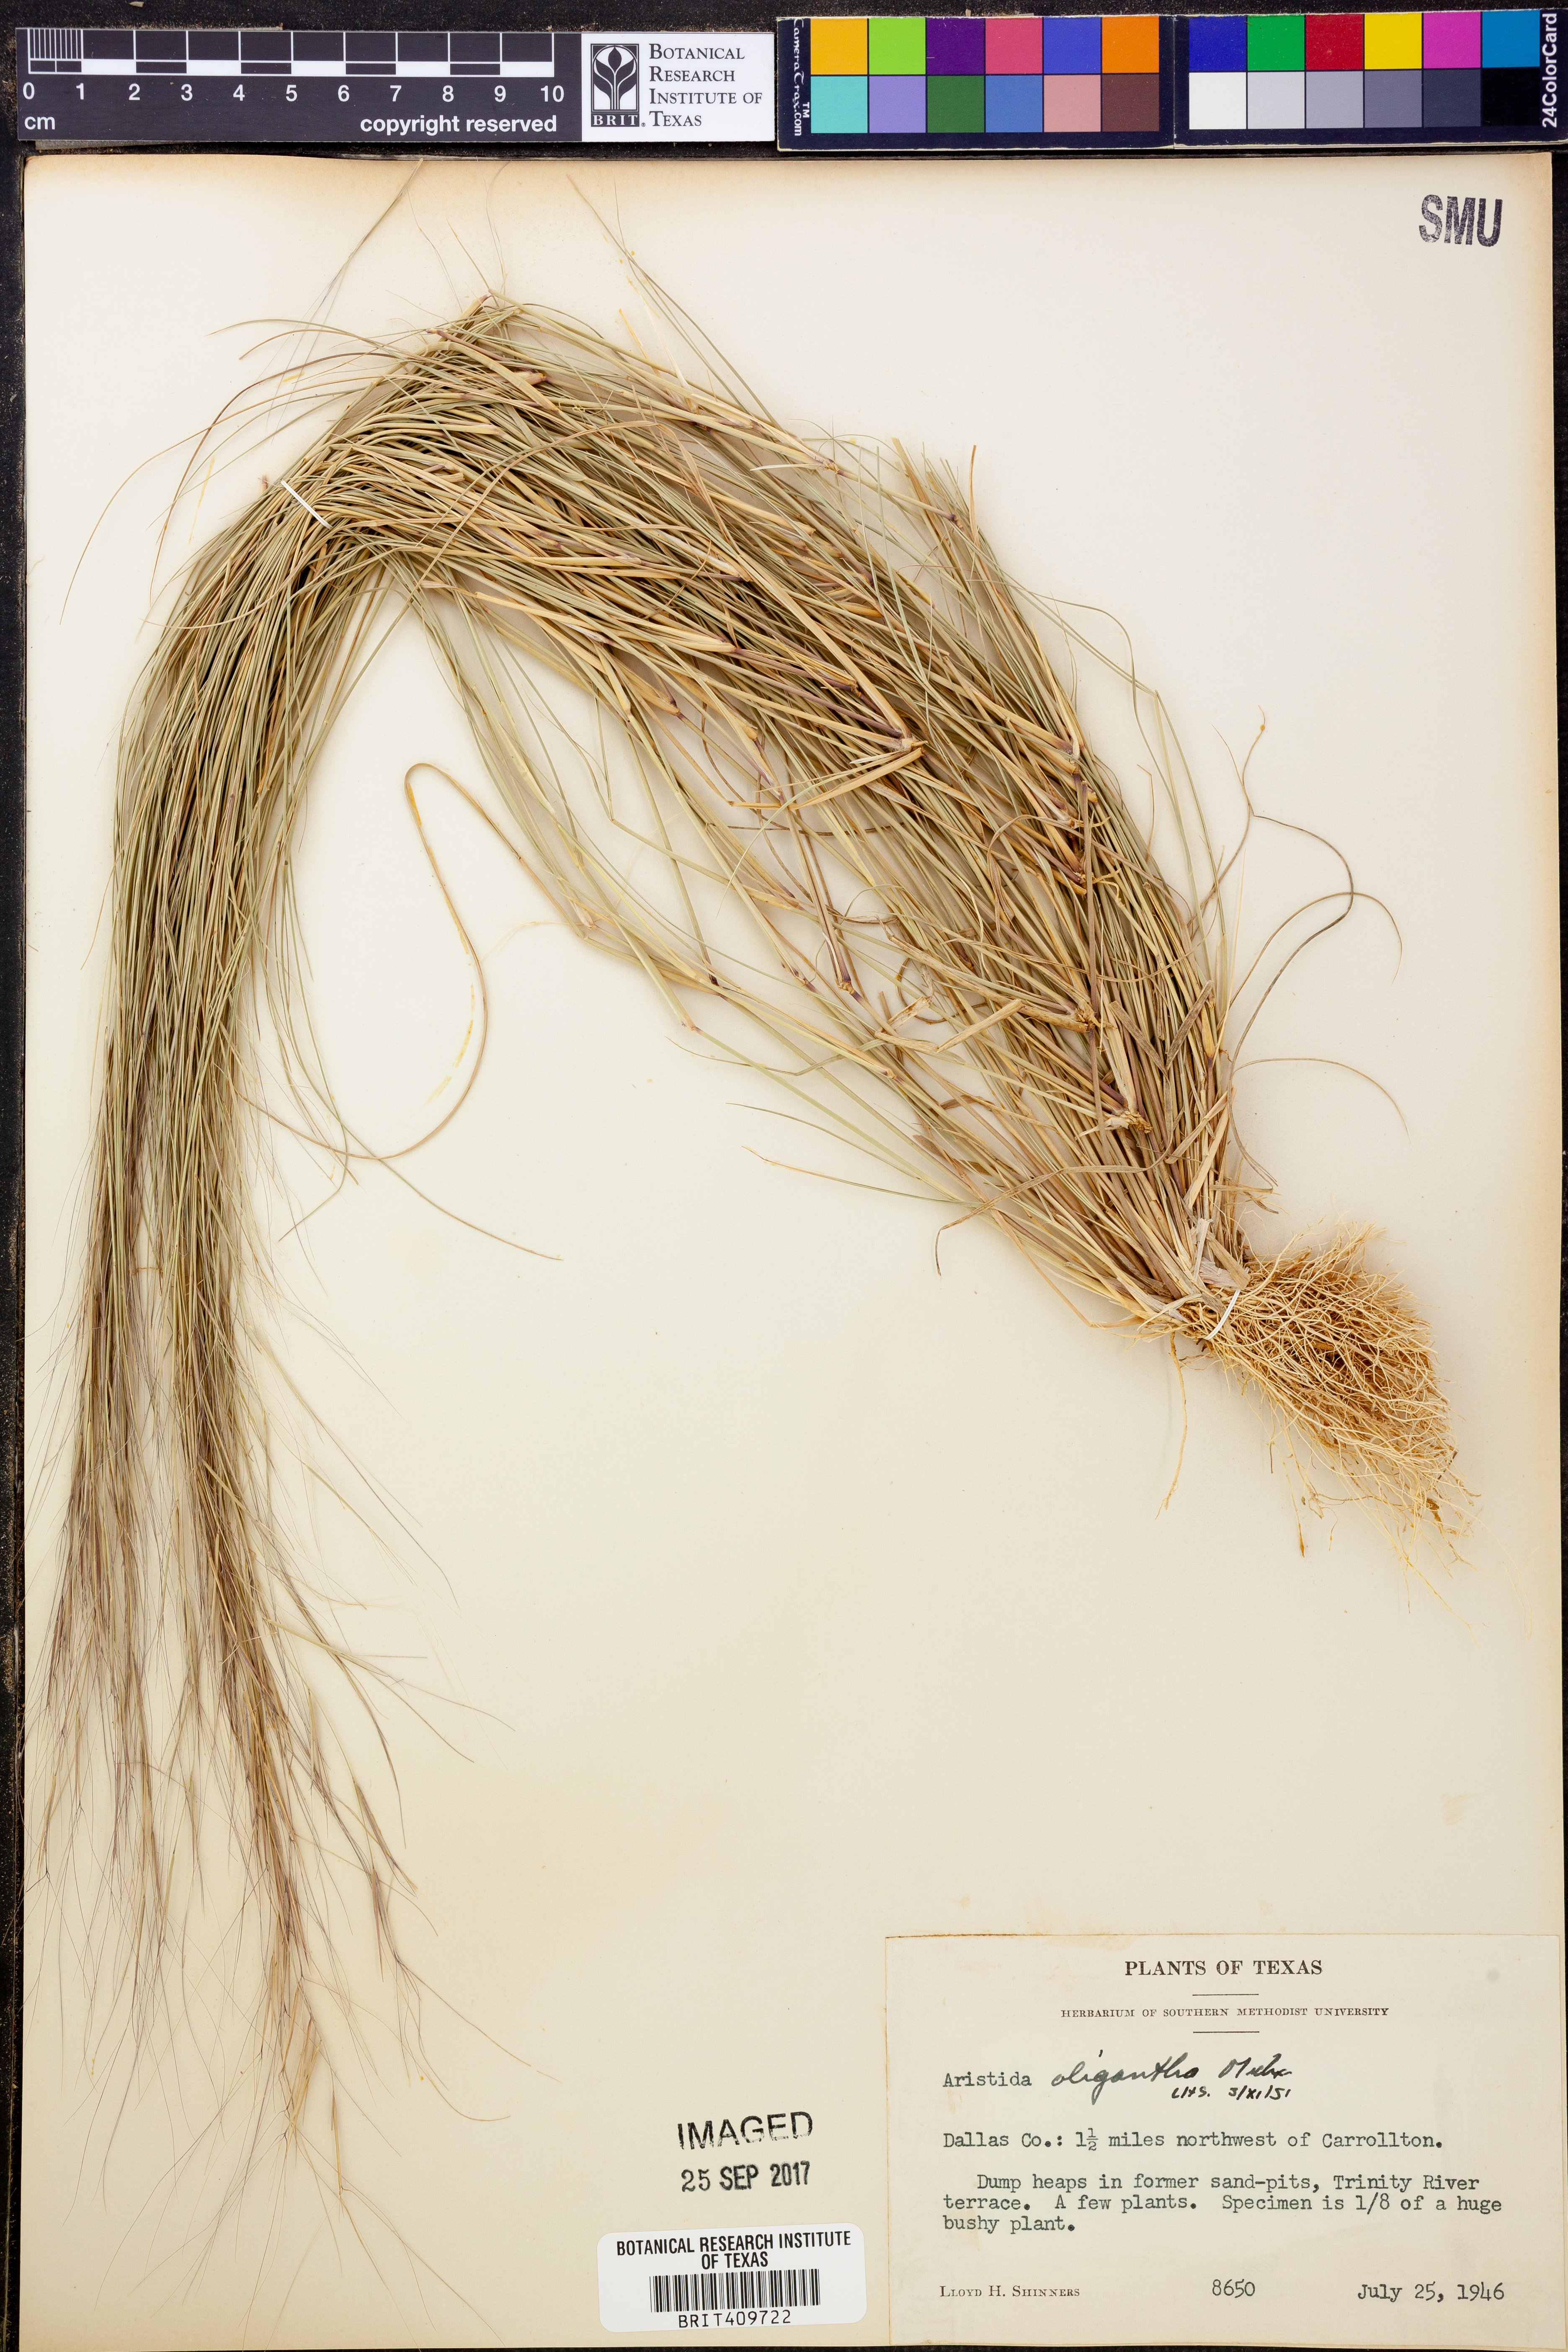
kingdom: Plantae
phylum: Tracheophyta
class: Liliopsida
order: Poales
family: Poaceae
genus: Aristida
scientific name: Aristida oligantha
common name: Few-flowered aristida
